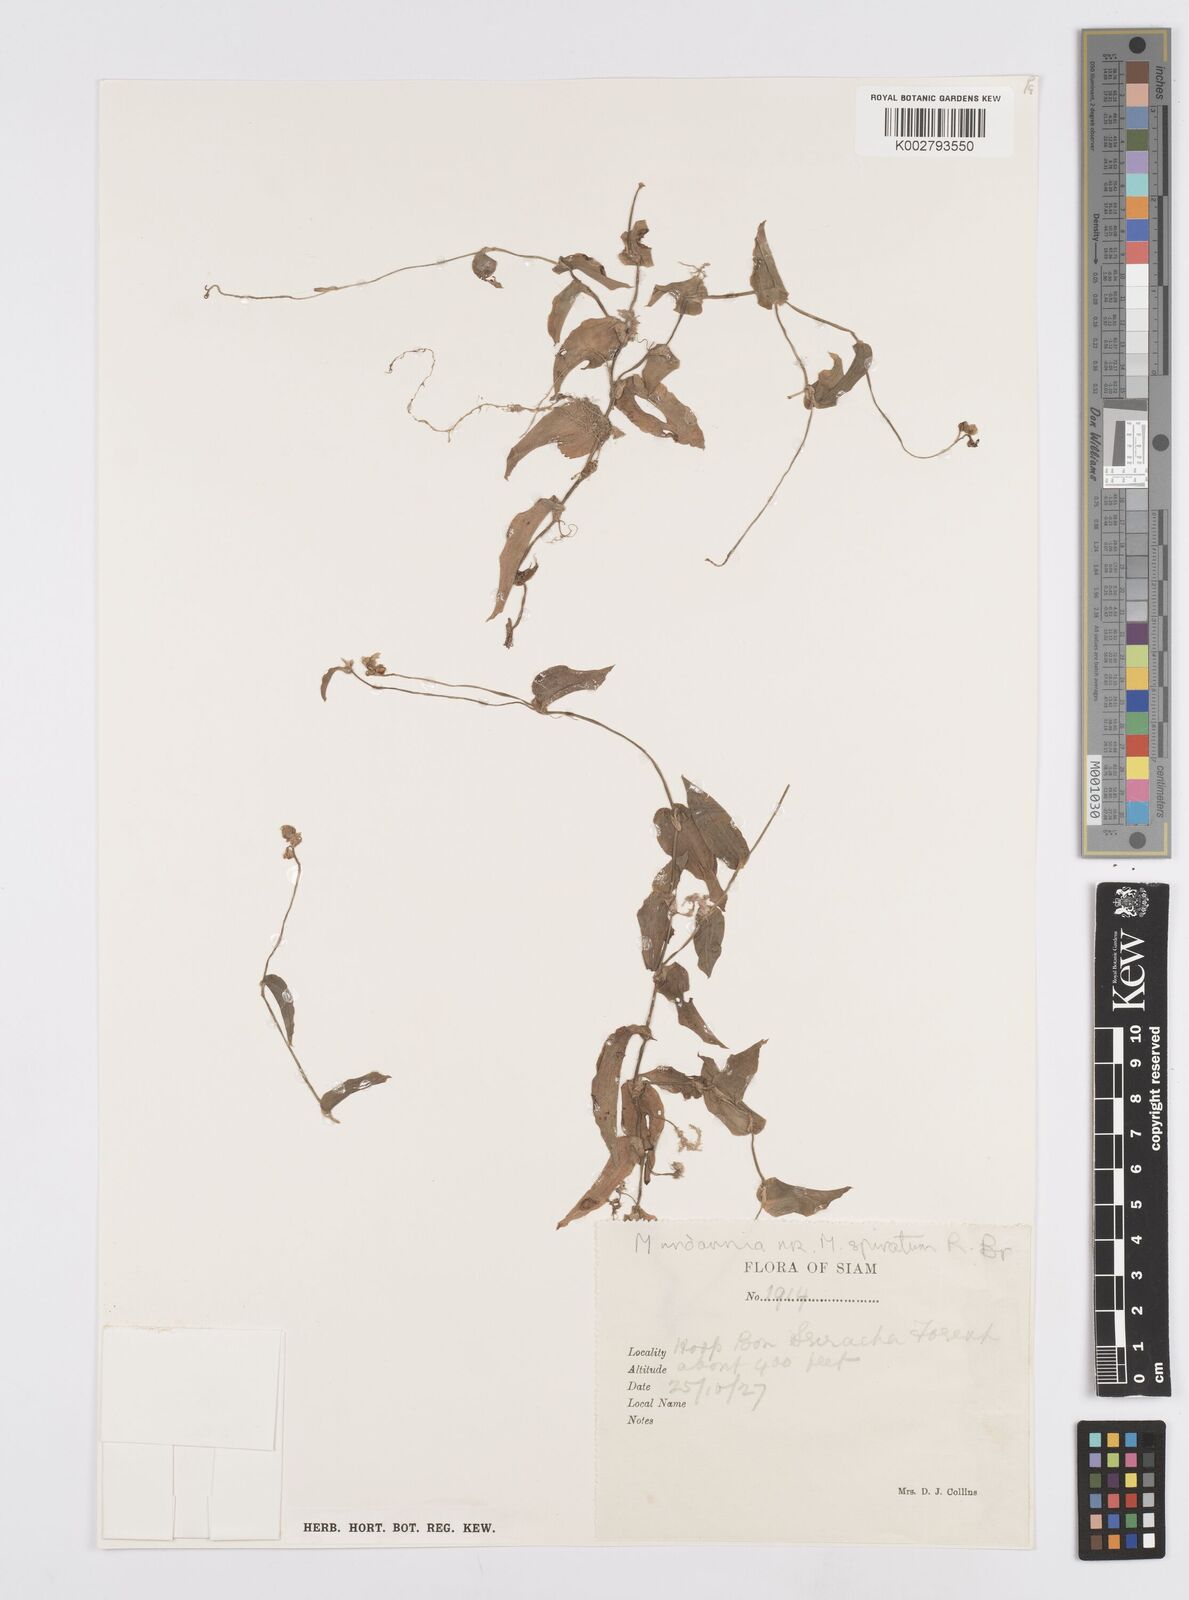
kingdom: Plantae
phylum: Tracheophyta
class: Liliopsida
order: Commelinales
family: Commelinaceae
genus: Murdannia
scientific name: Murdannia
